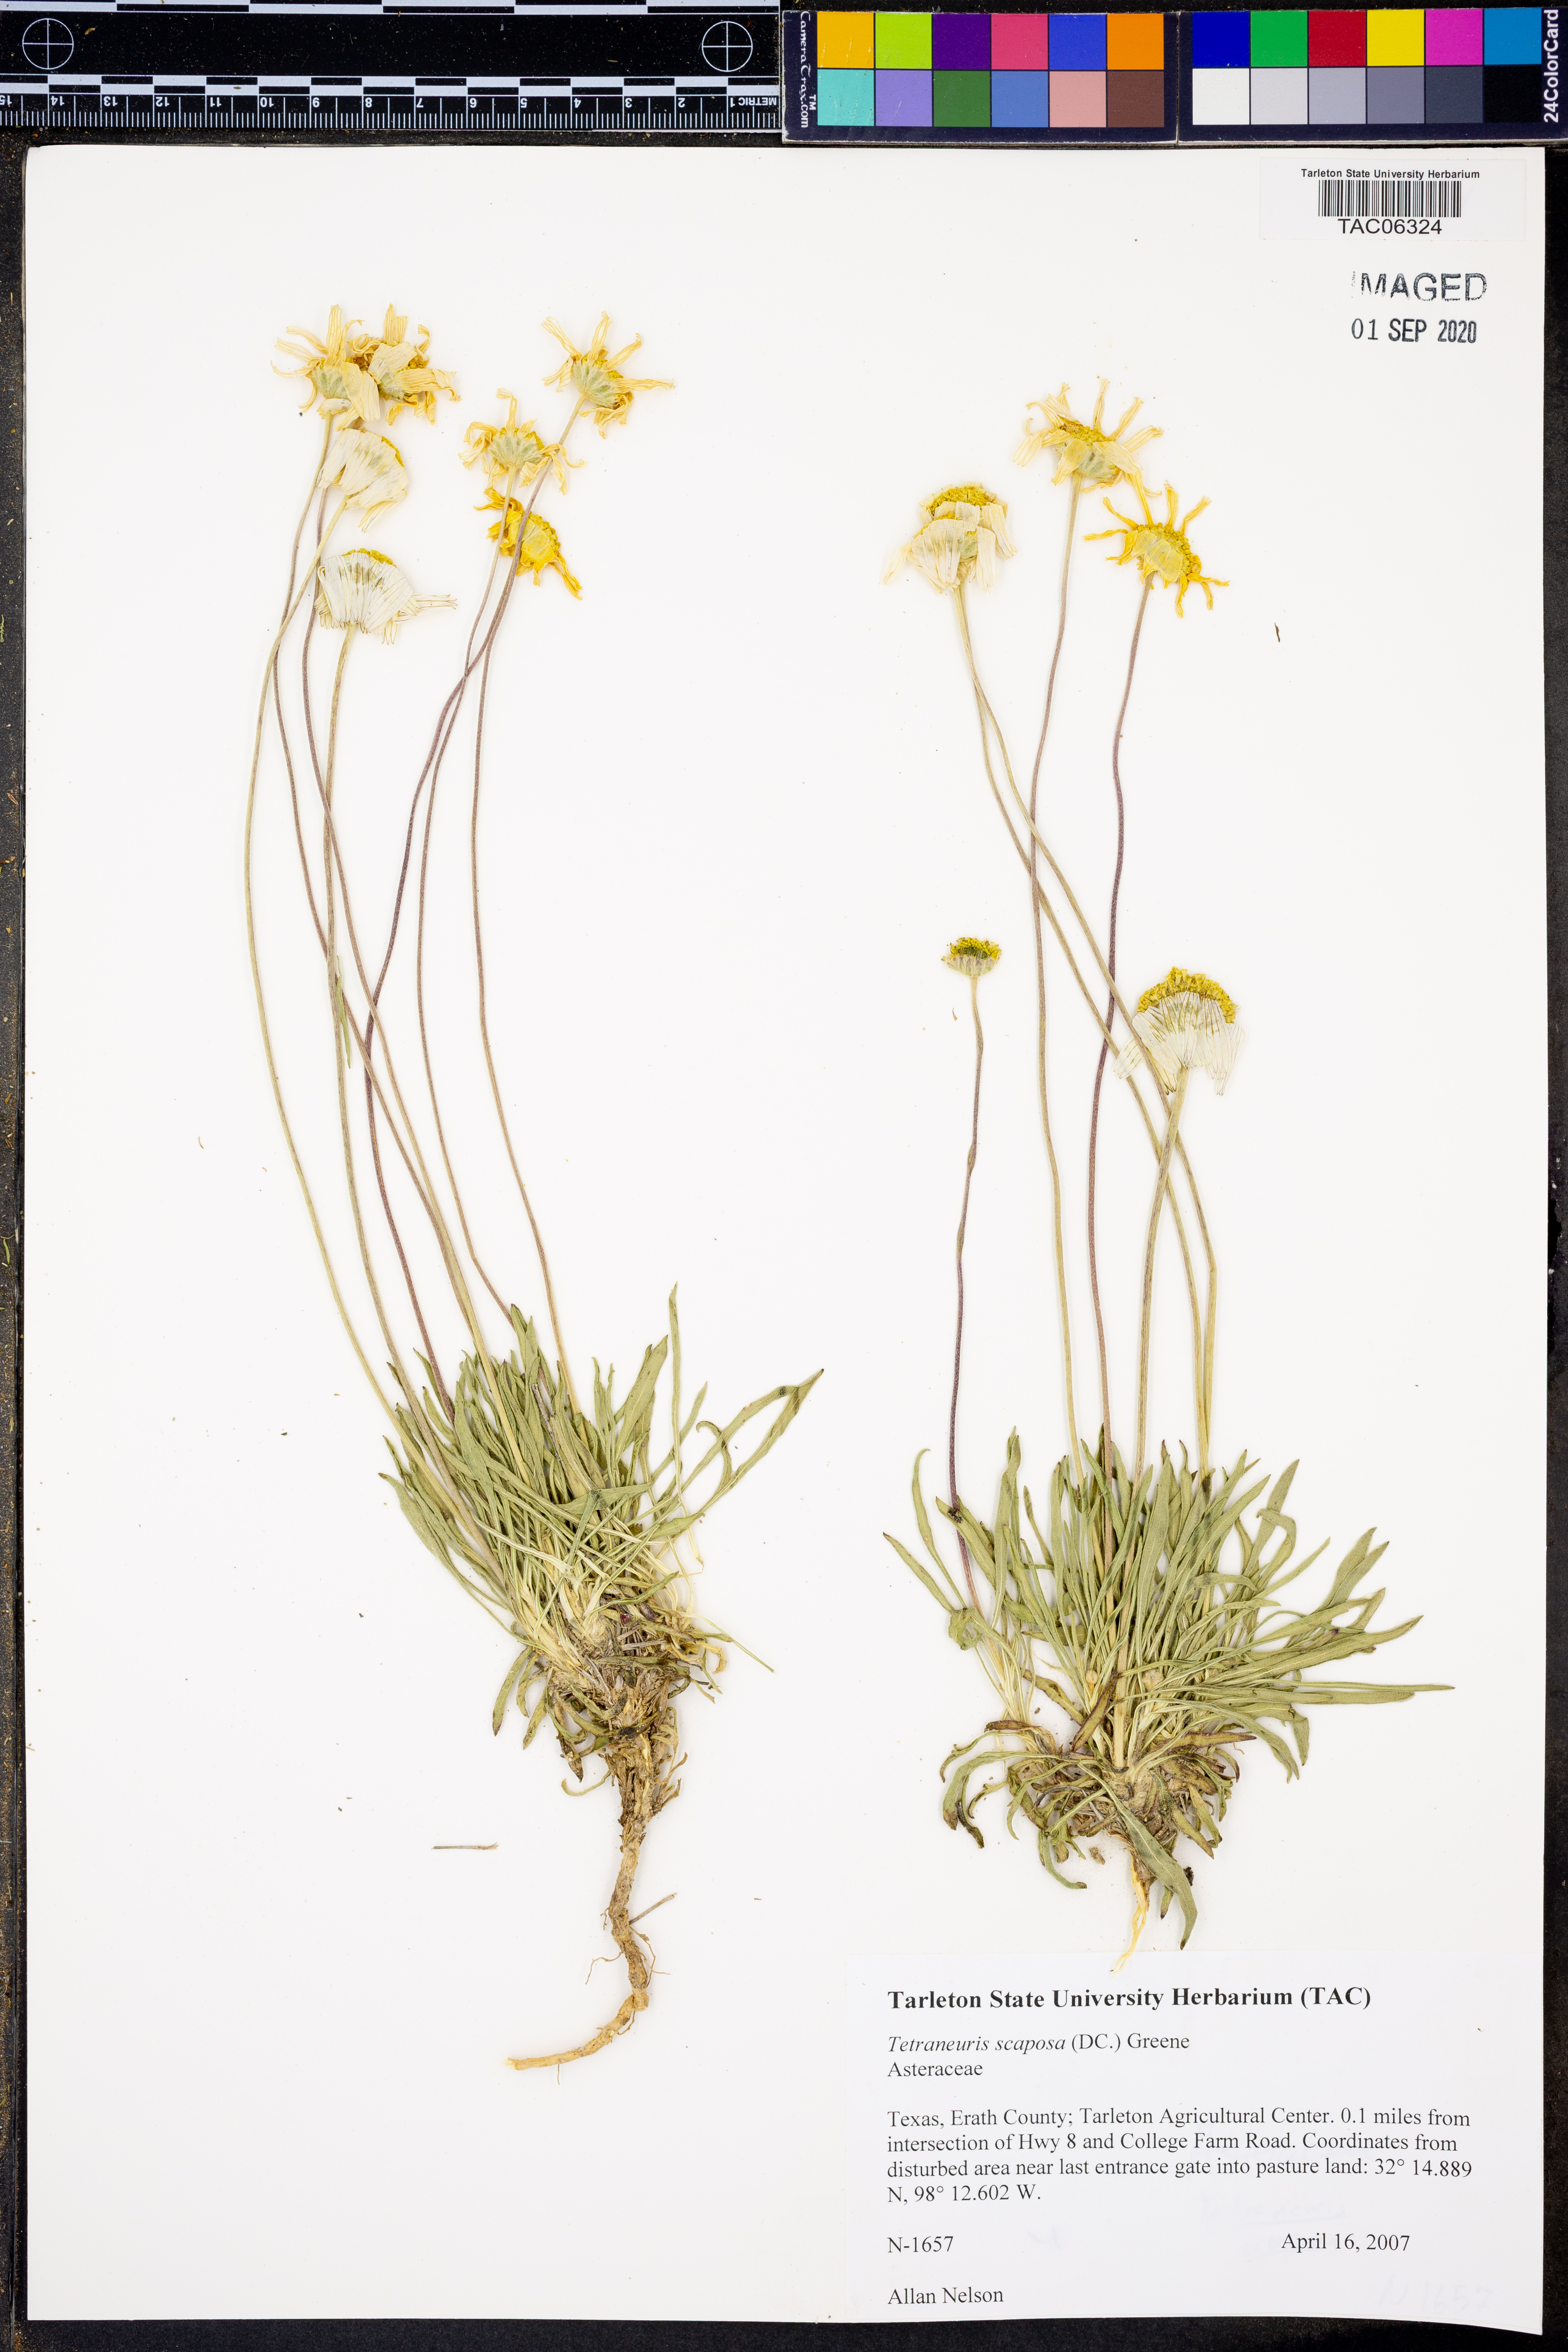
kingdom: Plantae
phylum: Tracheophyta
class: Magnoliopsida
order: Asterales
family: Asteraceae
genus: Tetraneuris
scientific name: Tetraneuris scaposa
